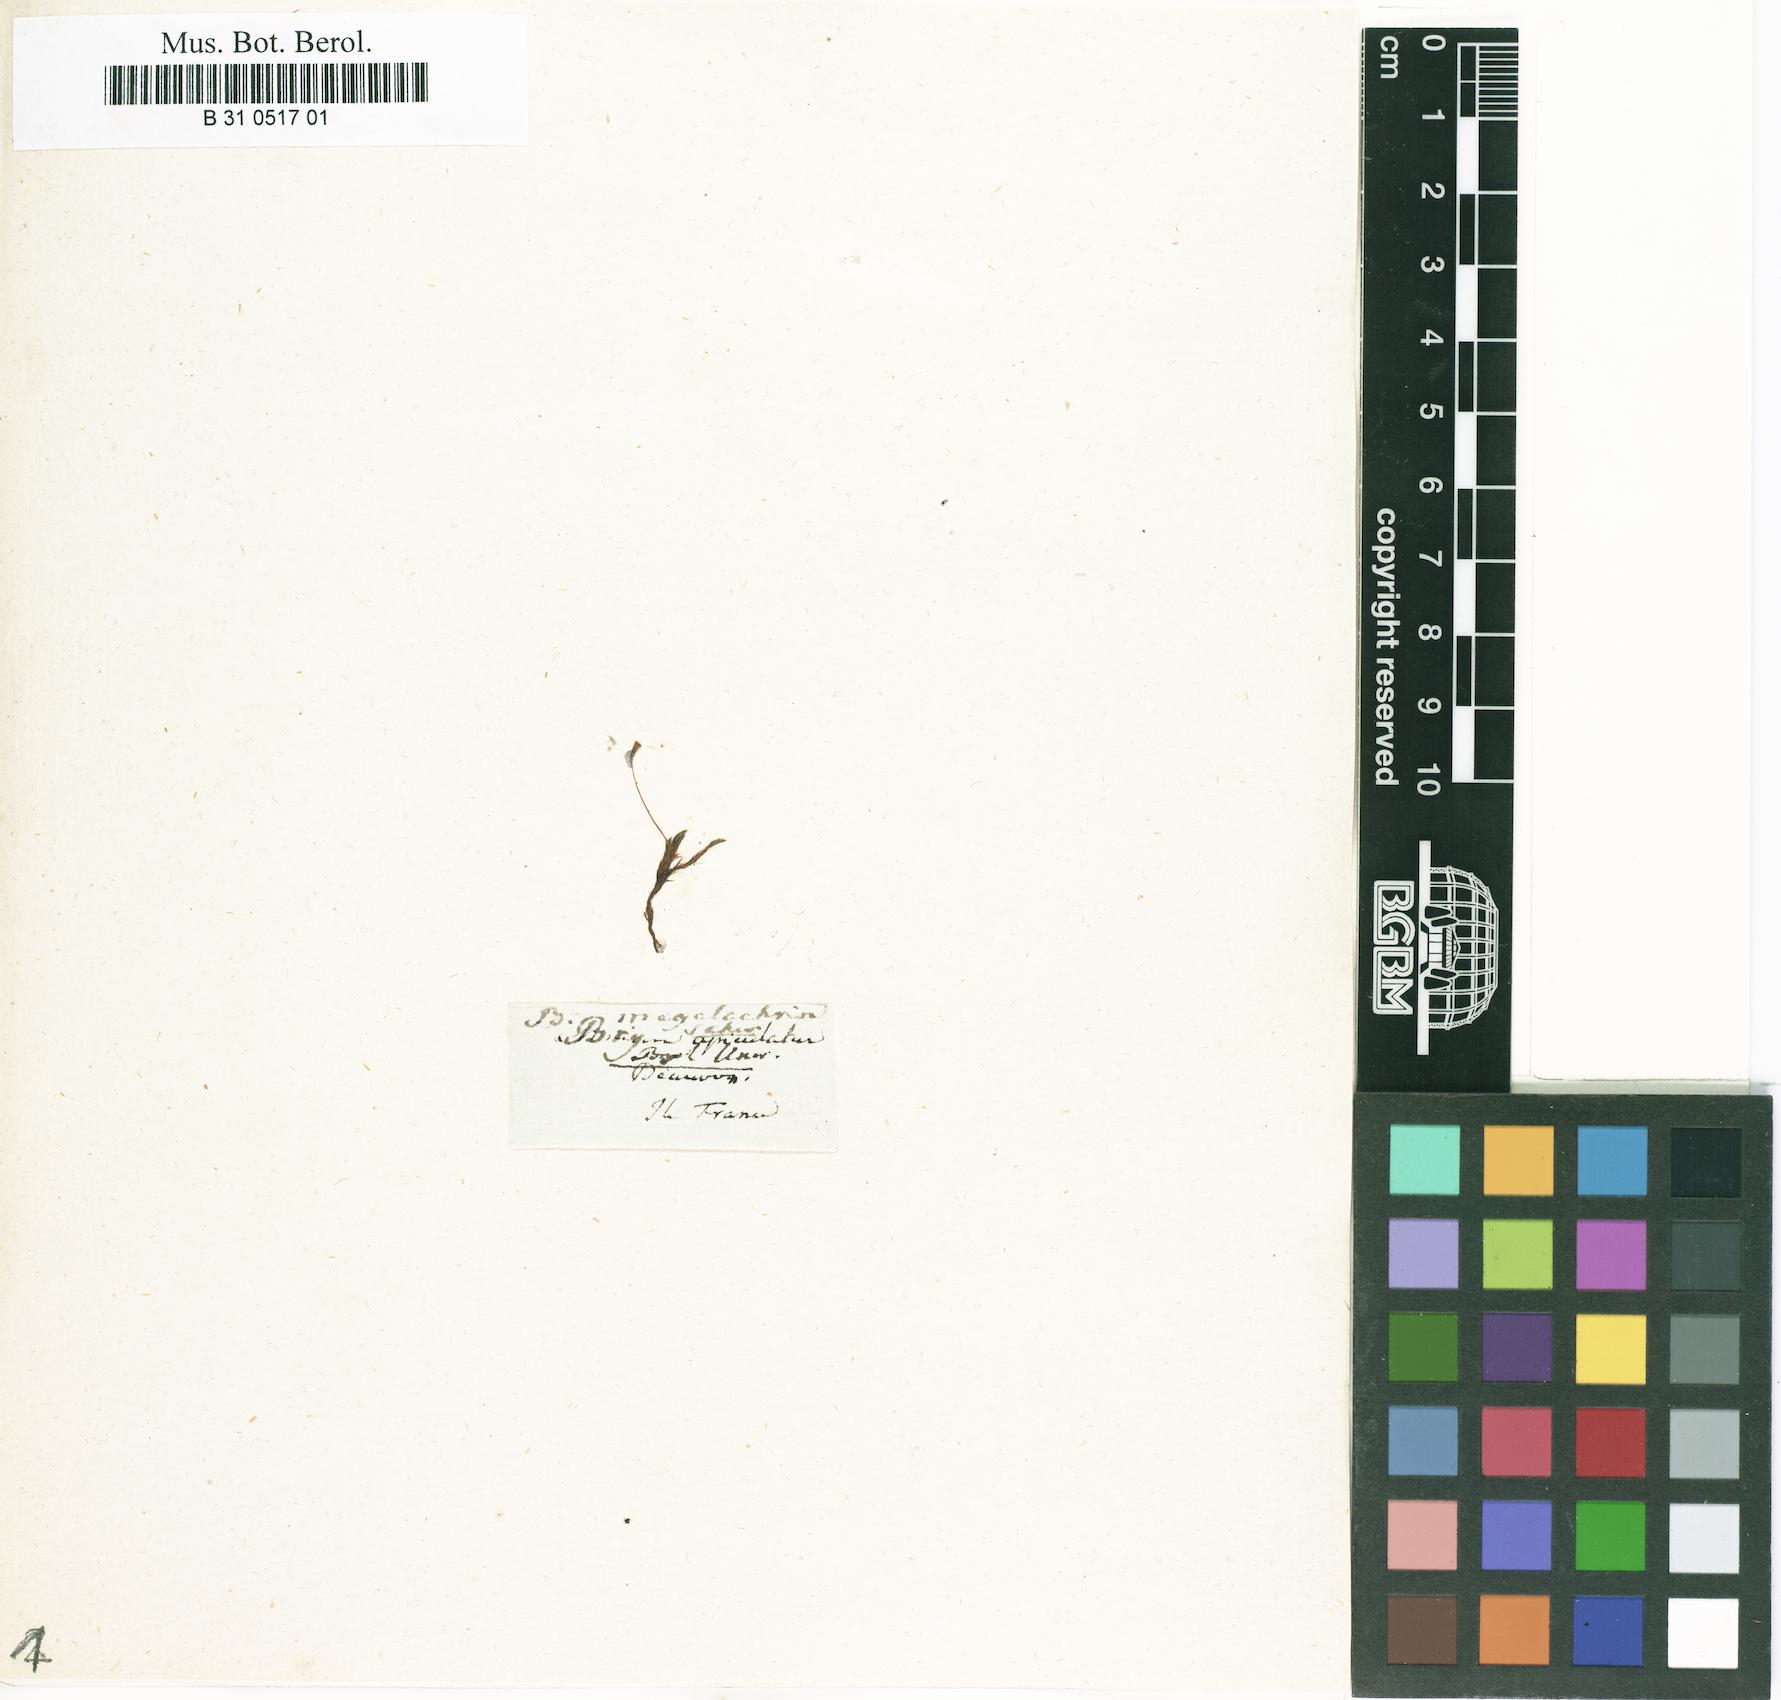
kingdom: Plantae
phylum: Bryophyta
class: Bryopsida
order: Bryales
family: Bryaceae
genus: Bryum
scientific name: Bryum megalacrion
